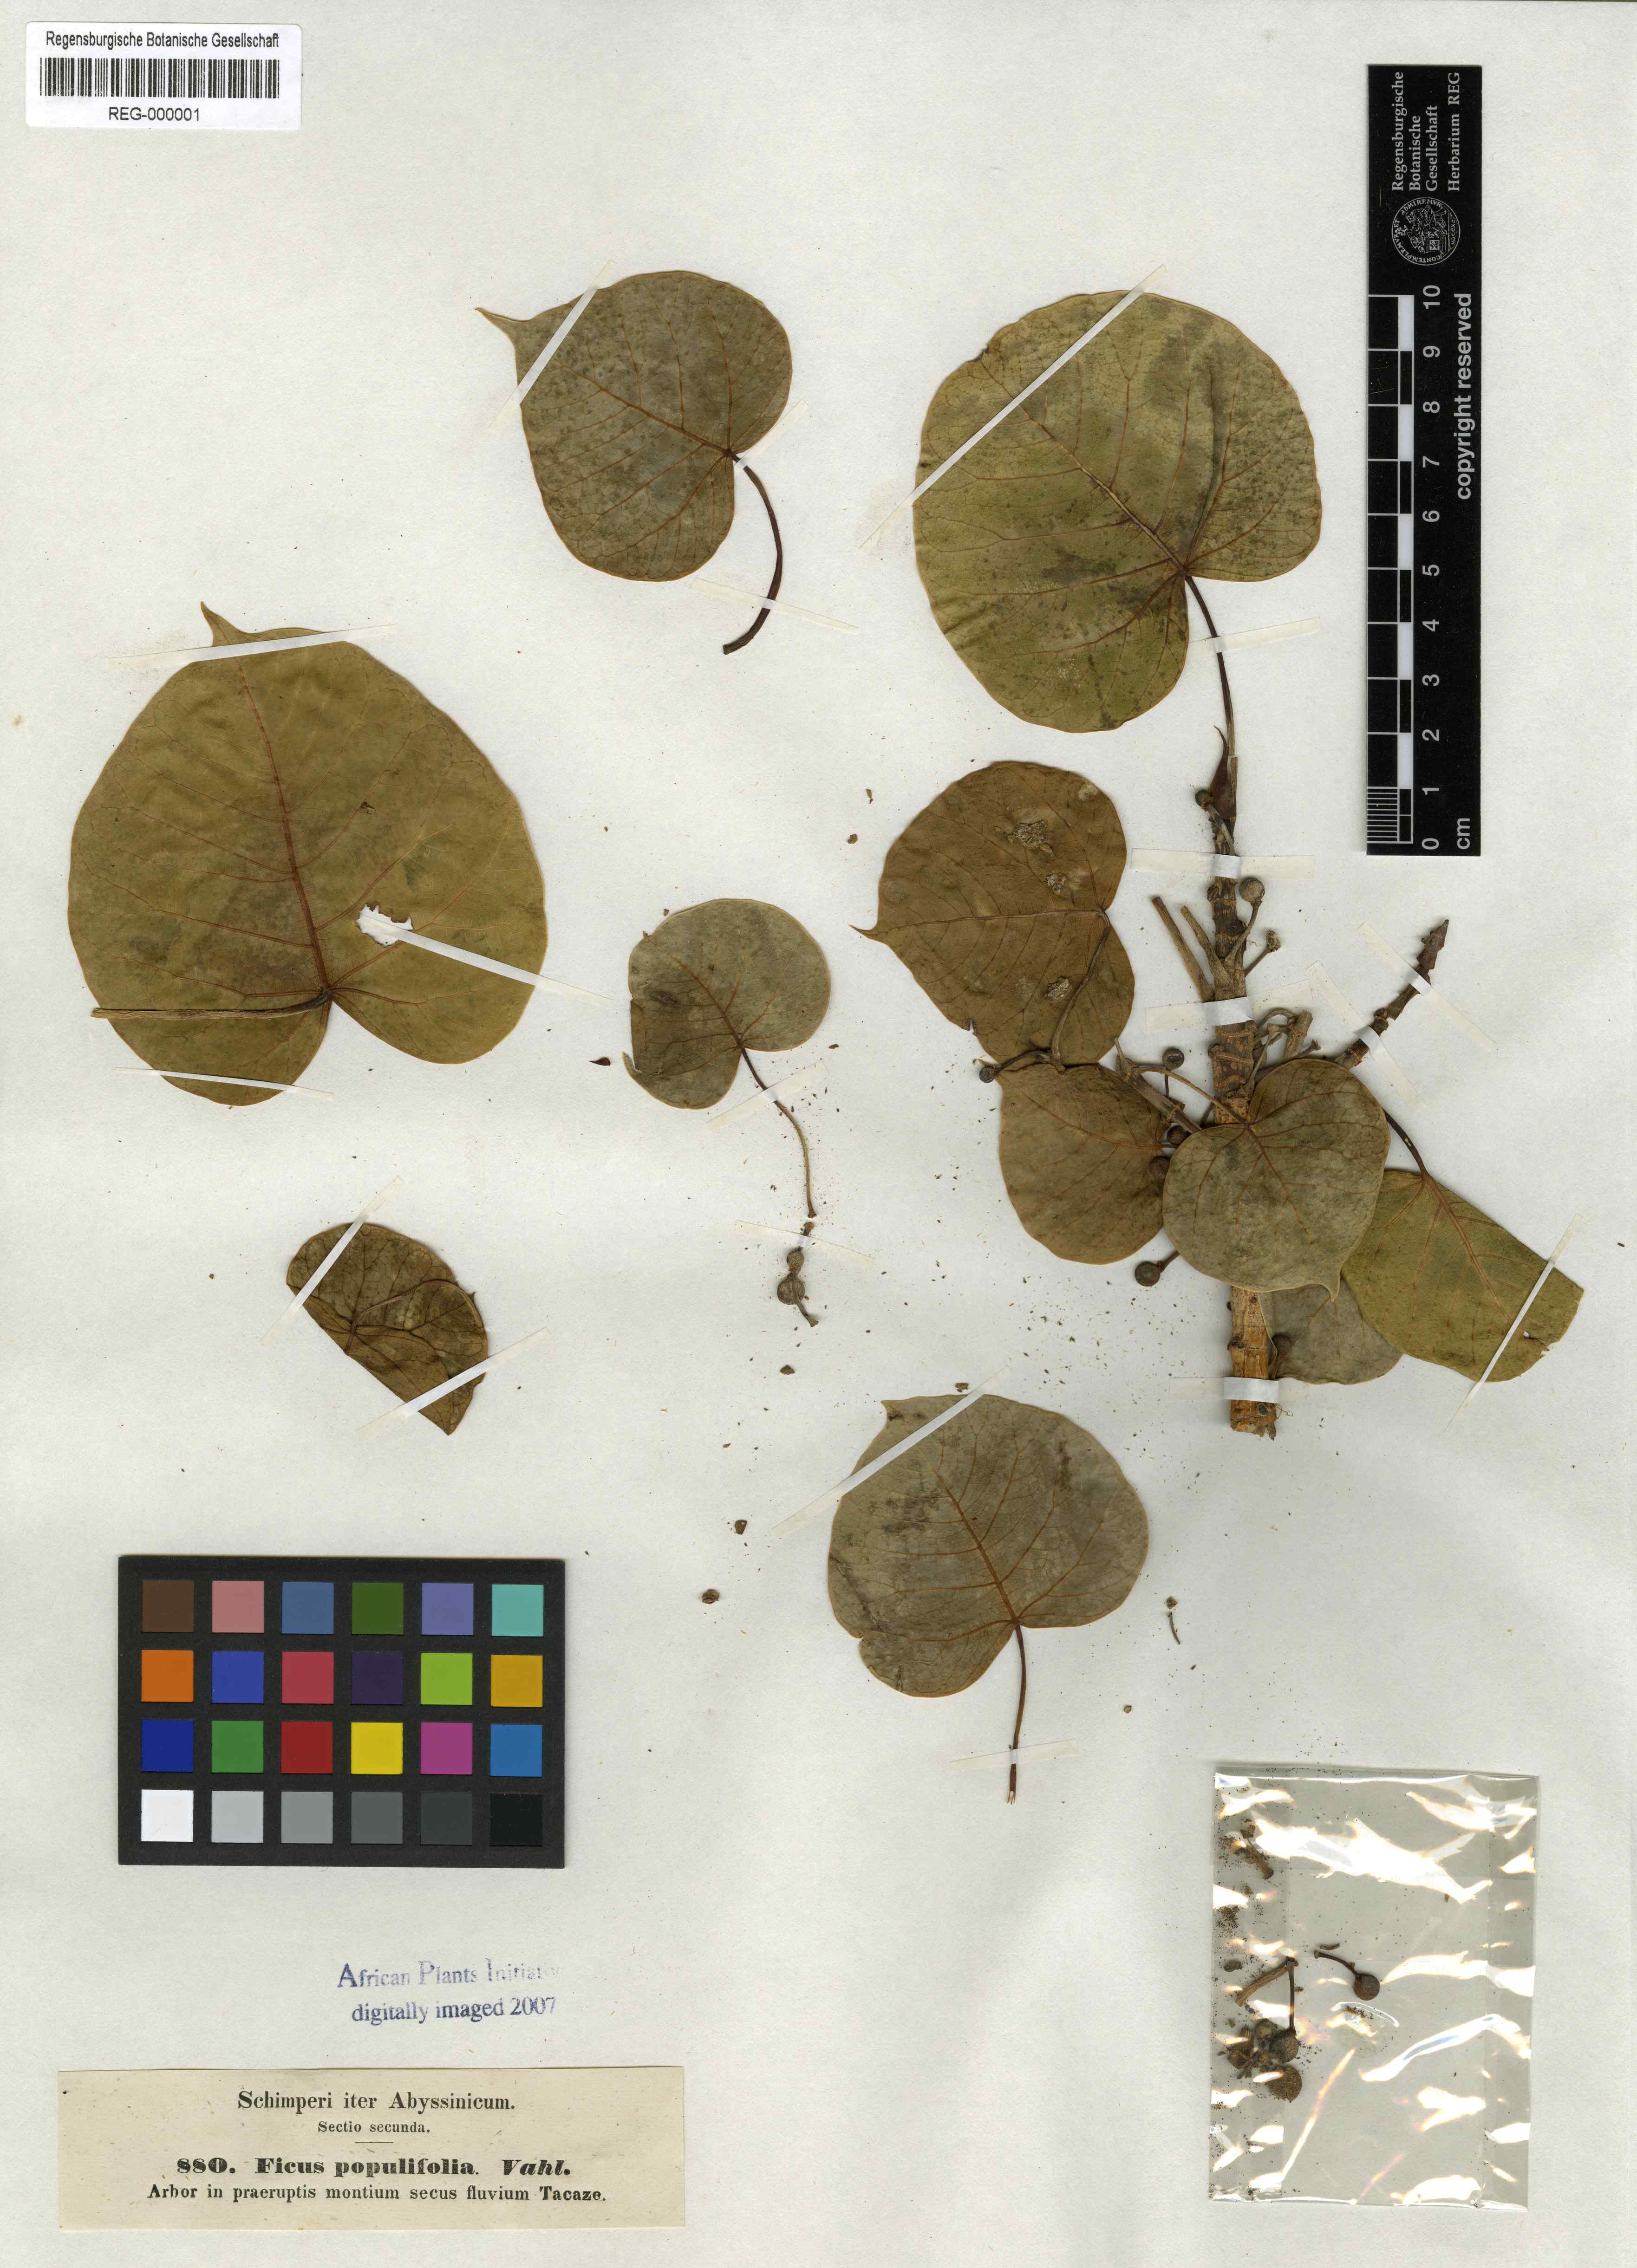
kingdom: Plantae
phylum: Tracheophyta
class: Magnoliopsida
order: Rosales
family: Moraceae
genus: Ficus
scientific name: Ficus populifolia
